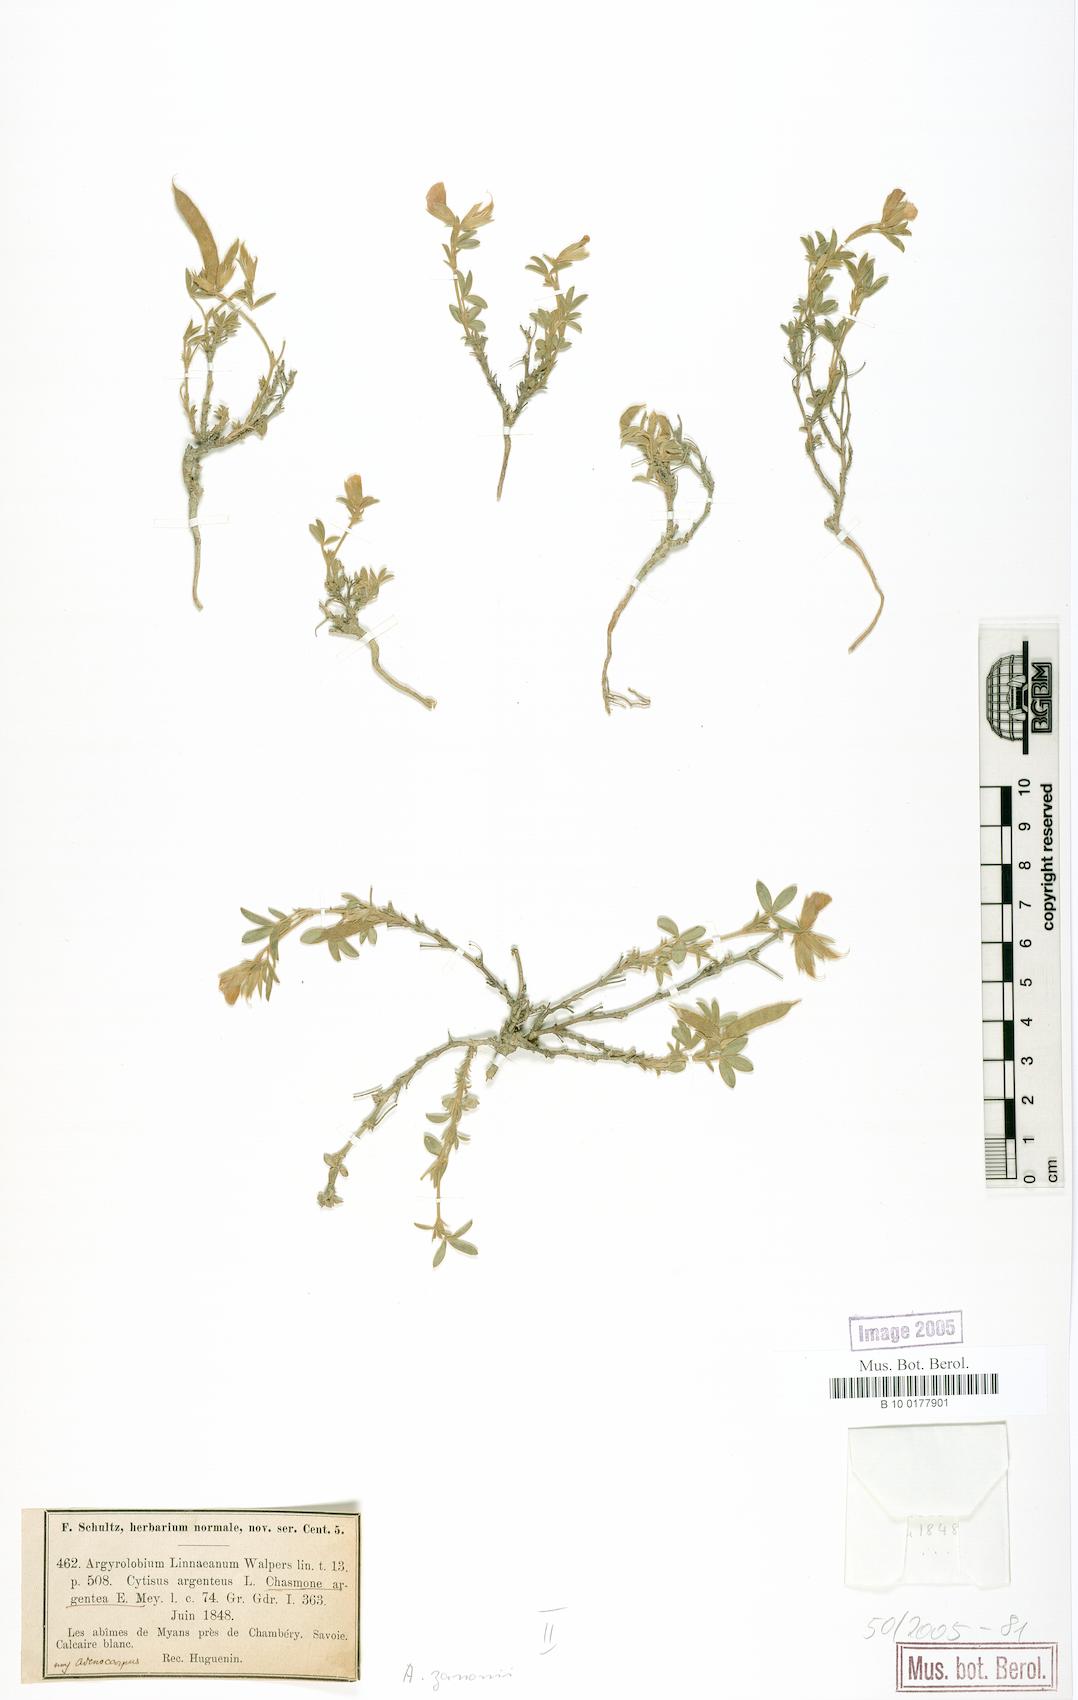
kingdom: Plantae
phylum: Tracheophyta
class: Magnoliopsida
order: Fabales
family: Fabaceae
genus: Argyrolobium
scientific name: Argyrolobium zanonii
